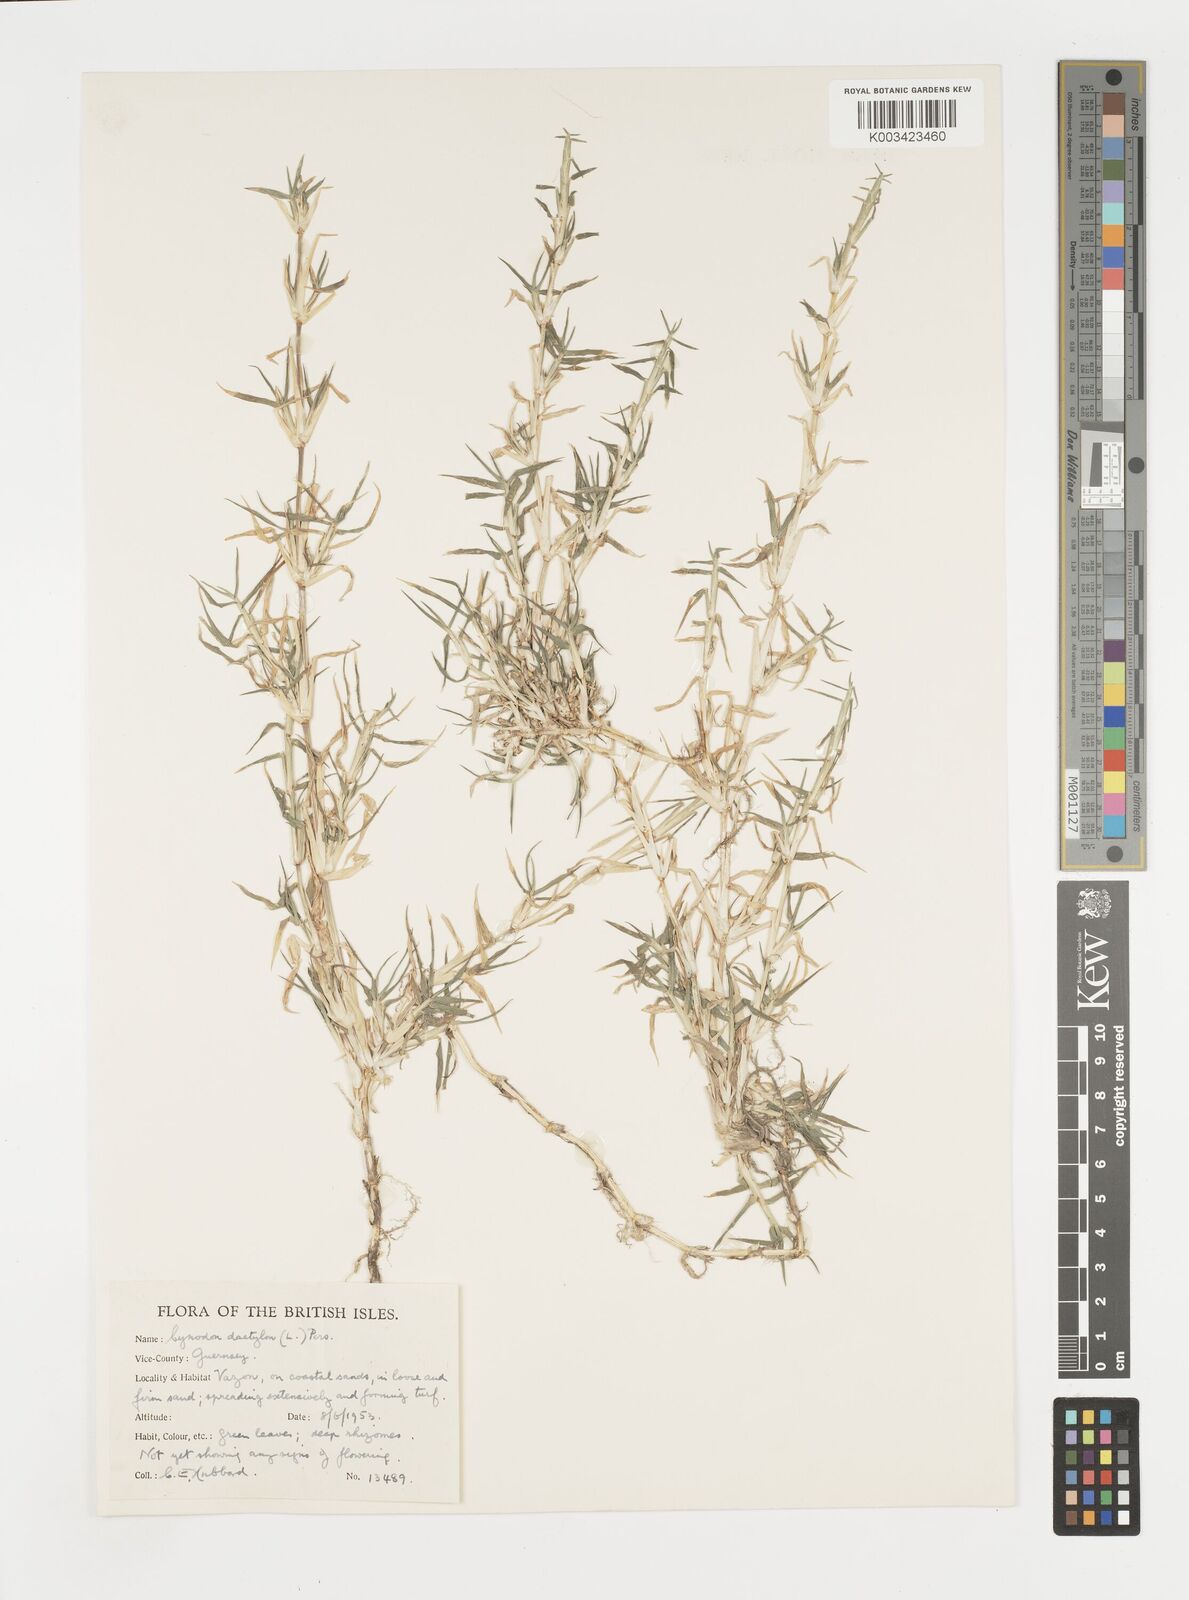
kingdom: Plantae
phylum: Tracheophyta
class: Liliopsida
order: Poales
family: Poaceae
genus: Cynodon
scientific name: Cynodon dactylon
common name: Bermuda grass
